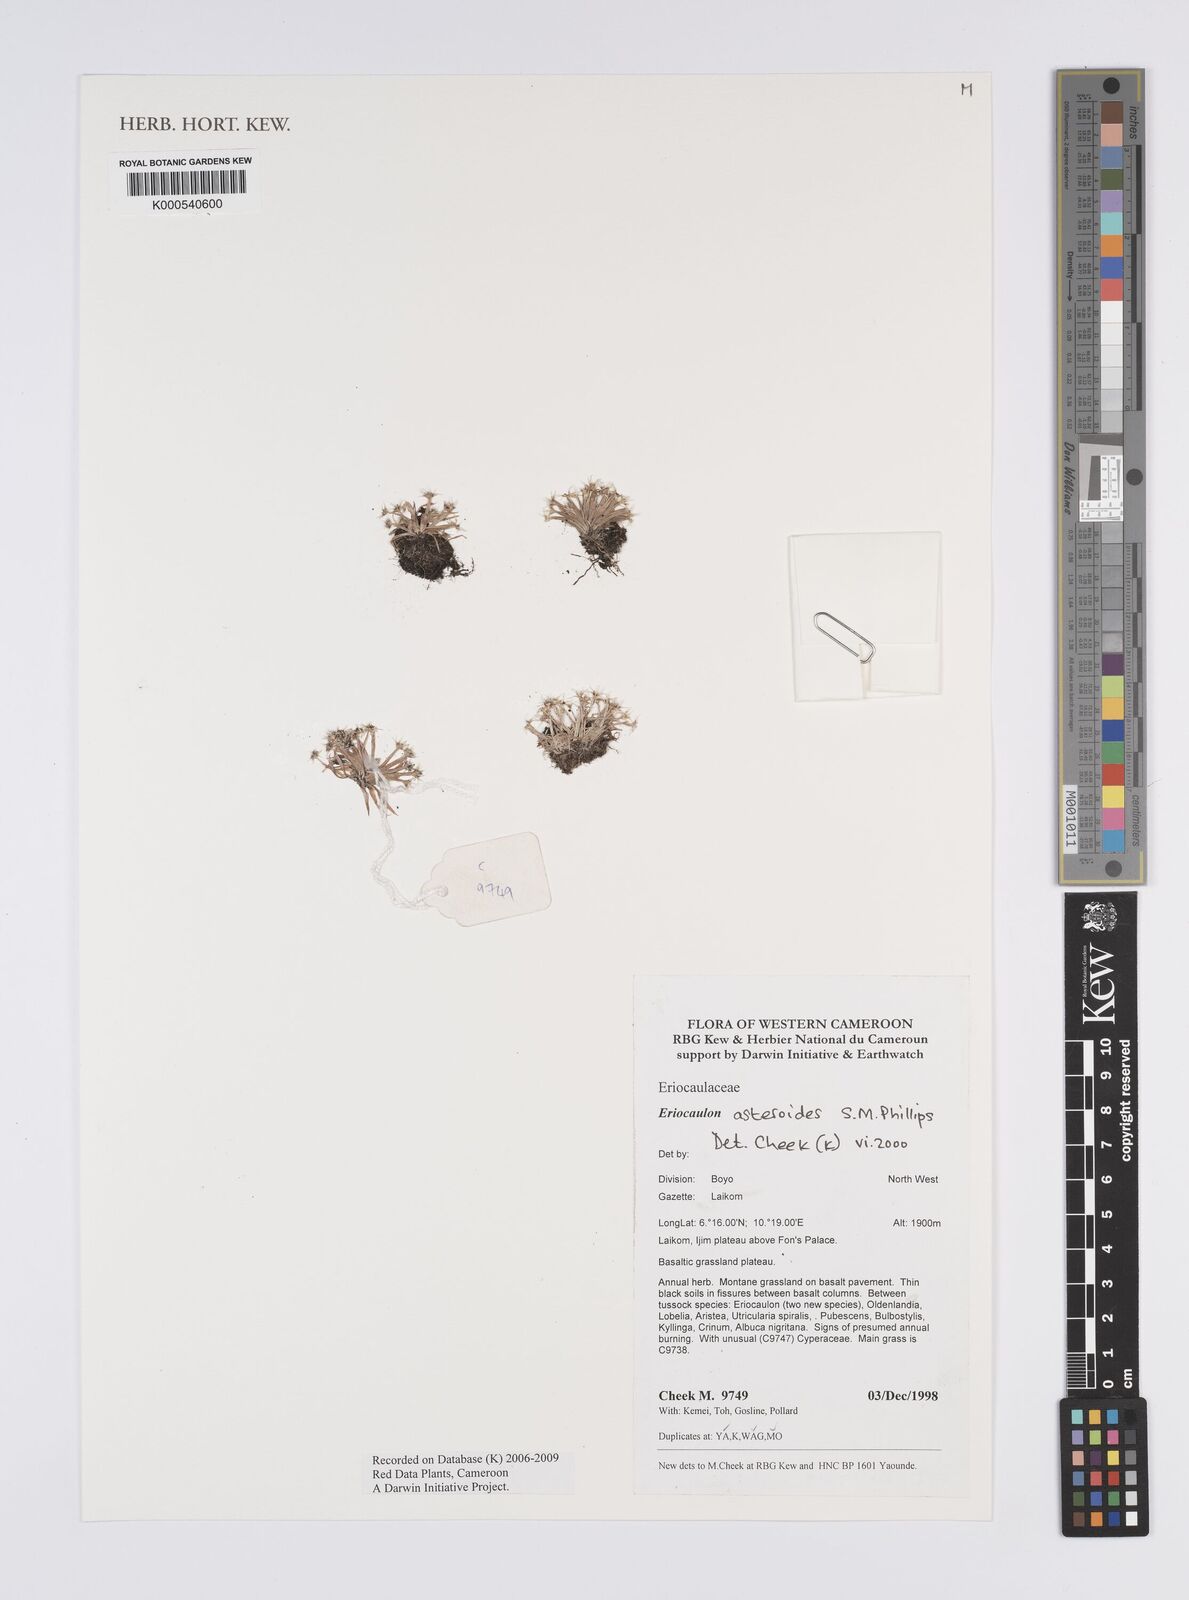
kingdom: Plantae
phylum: Tracheophyta
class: Liliopsida
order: Poales
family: Eriocaulaceae
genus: Eriocaulon
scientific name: Eriocaulon asteroides
